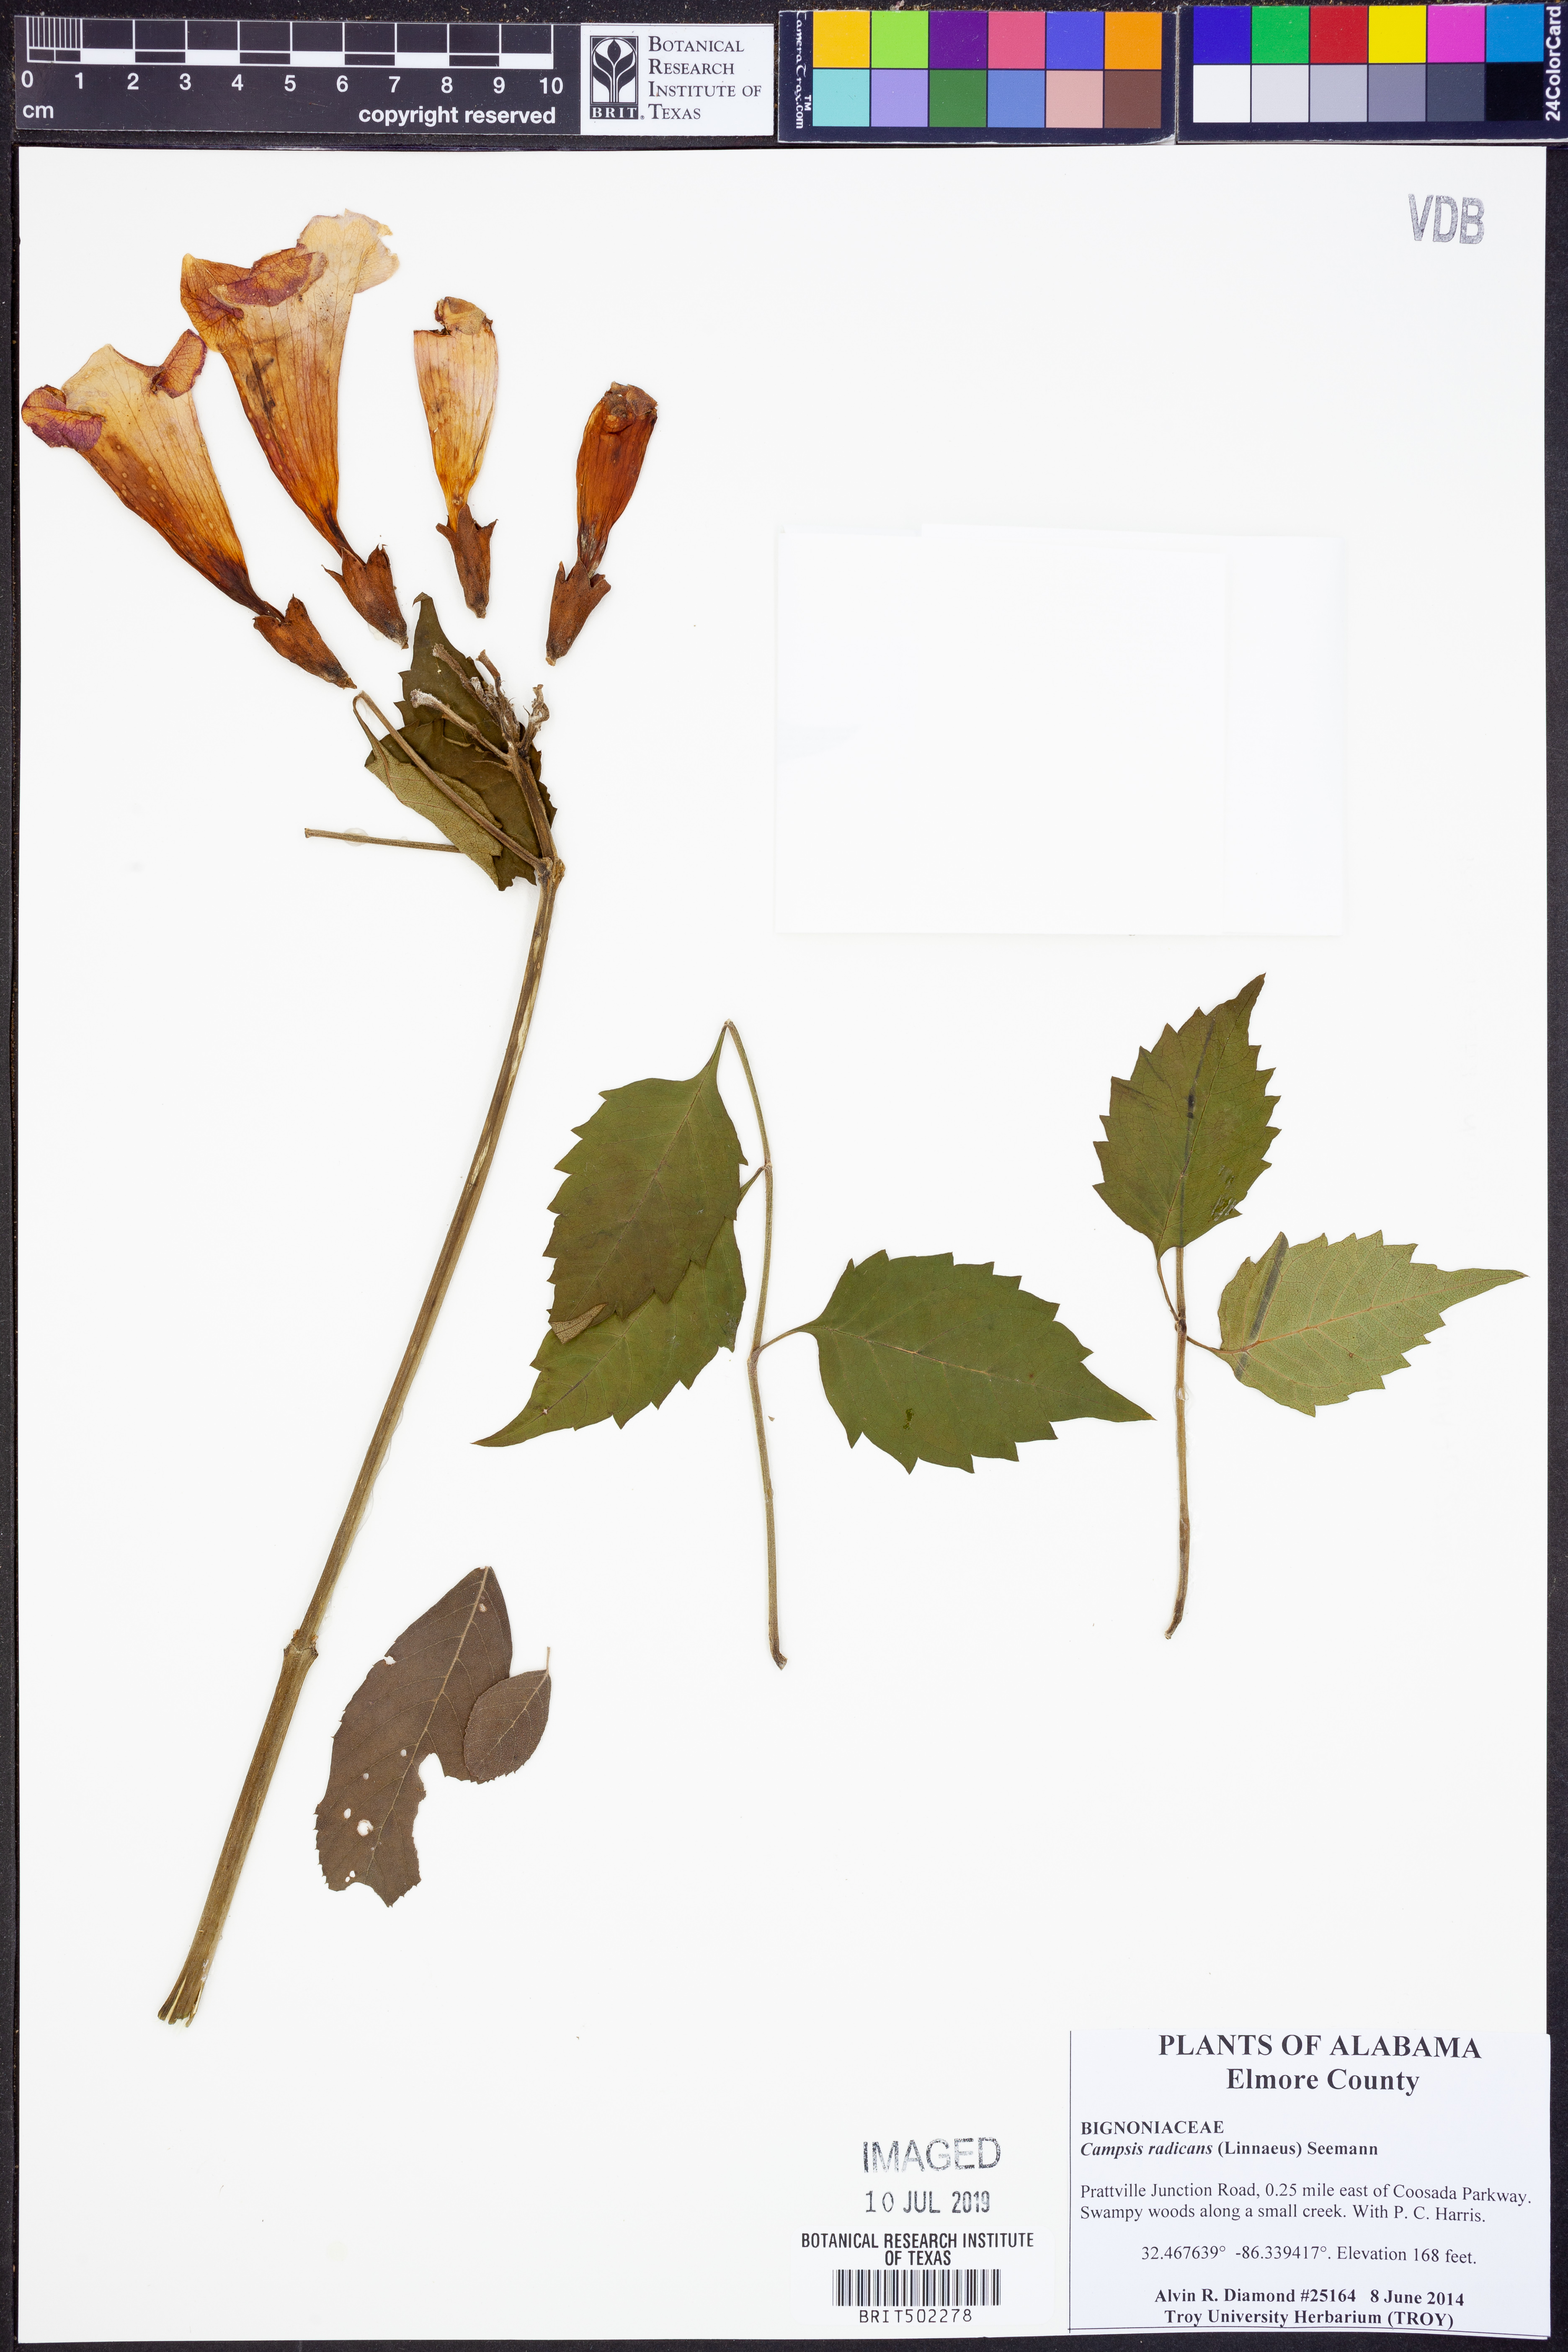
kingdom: Plantae
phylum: Tracheophyta
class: Magnoliopsida
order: Lamiales
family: Bignoniaceae
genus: Campsis
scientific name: Campsis radicans
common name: Trumpet-creeper
